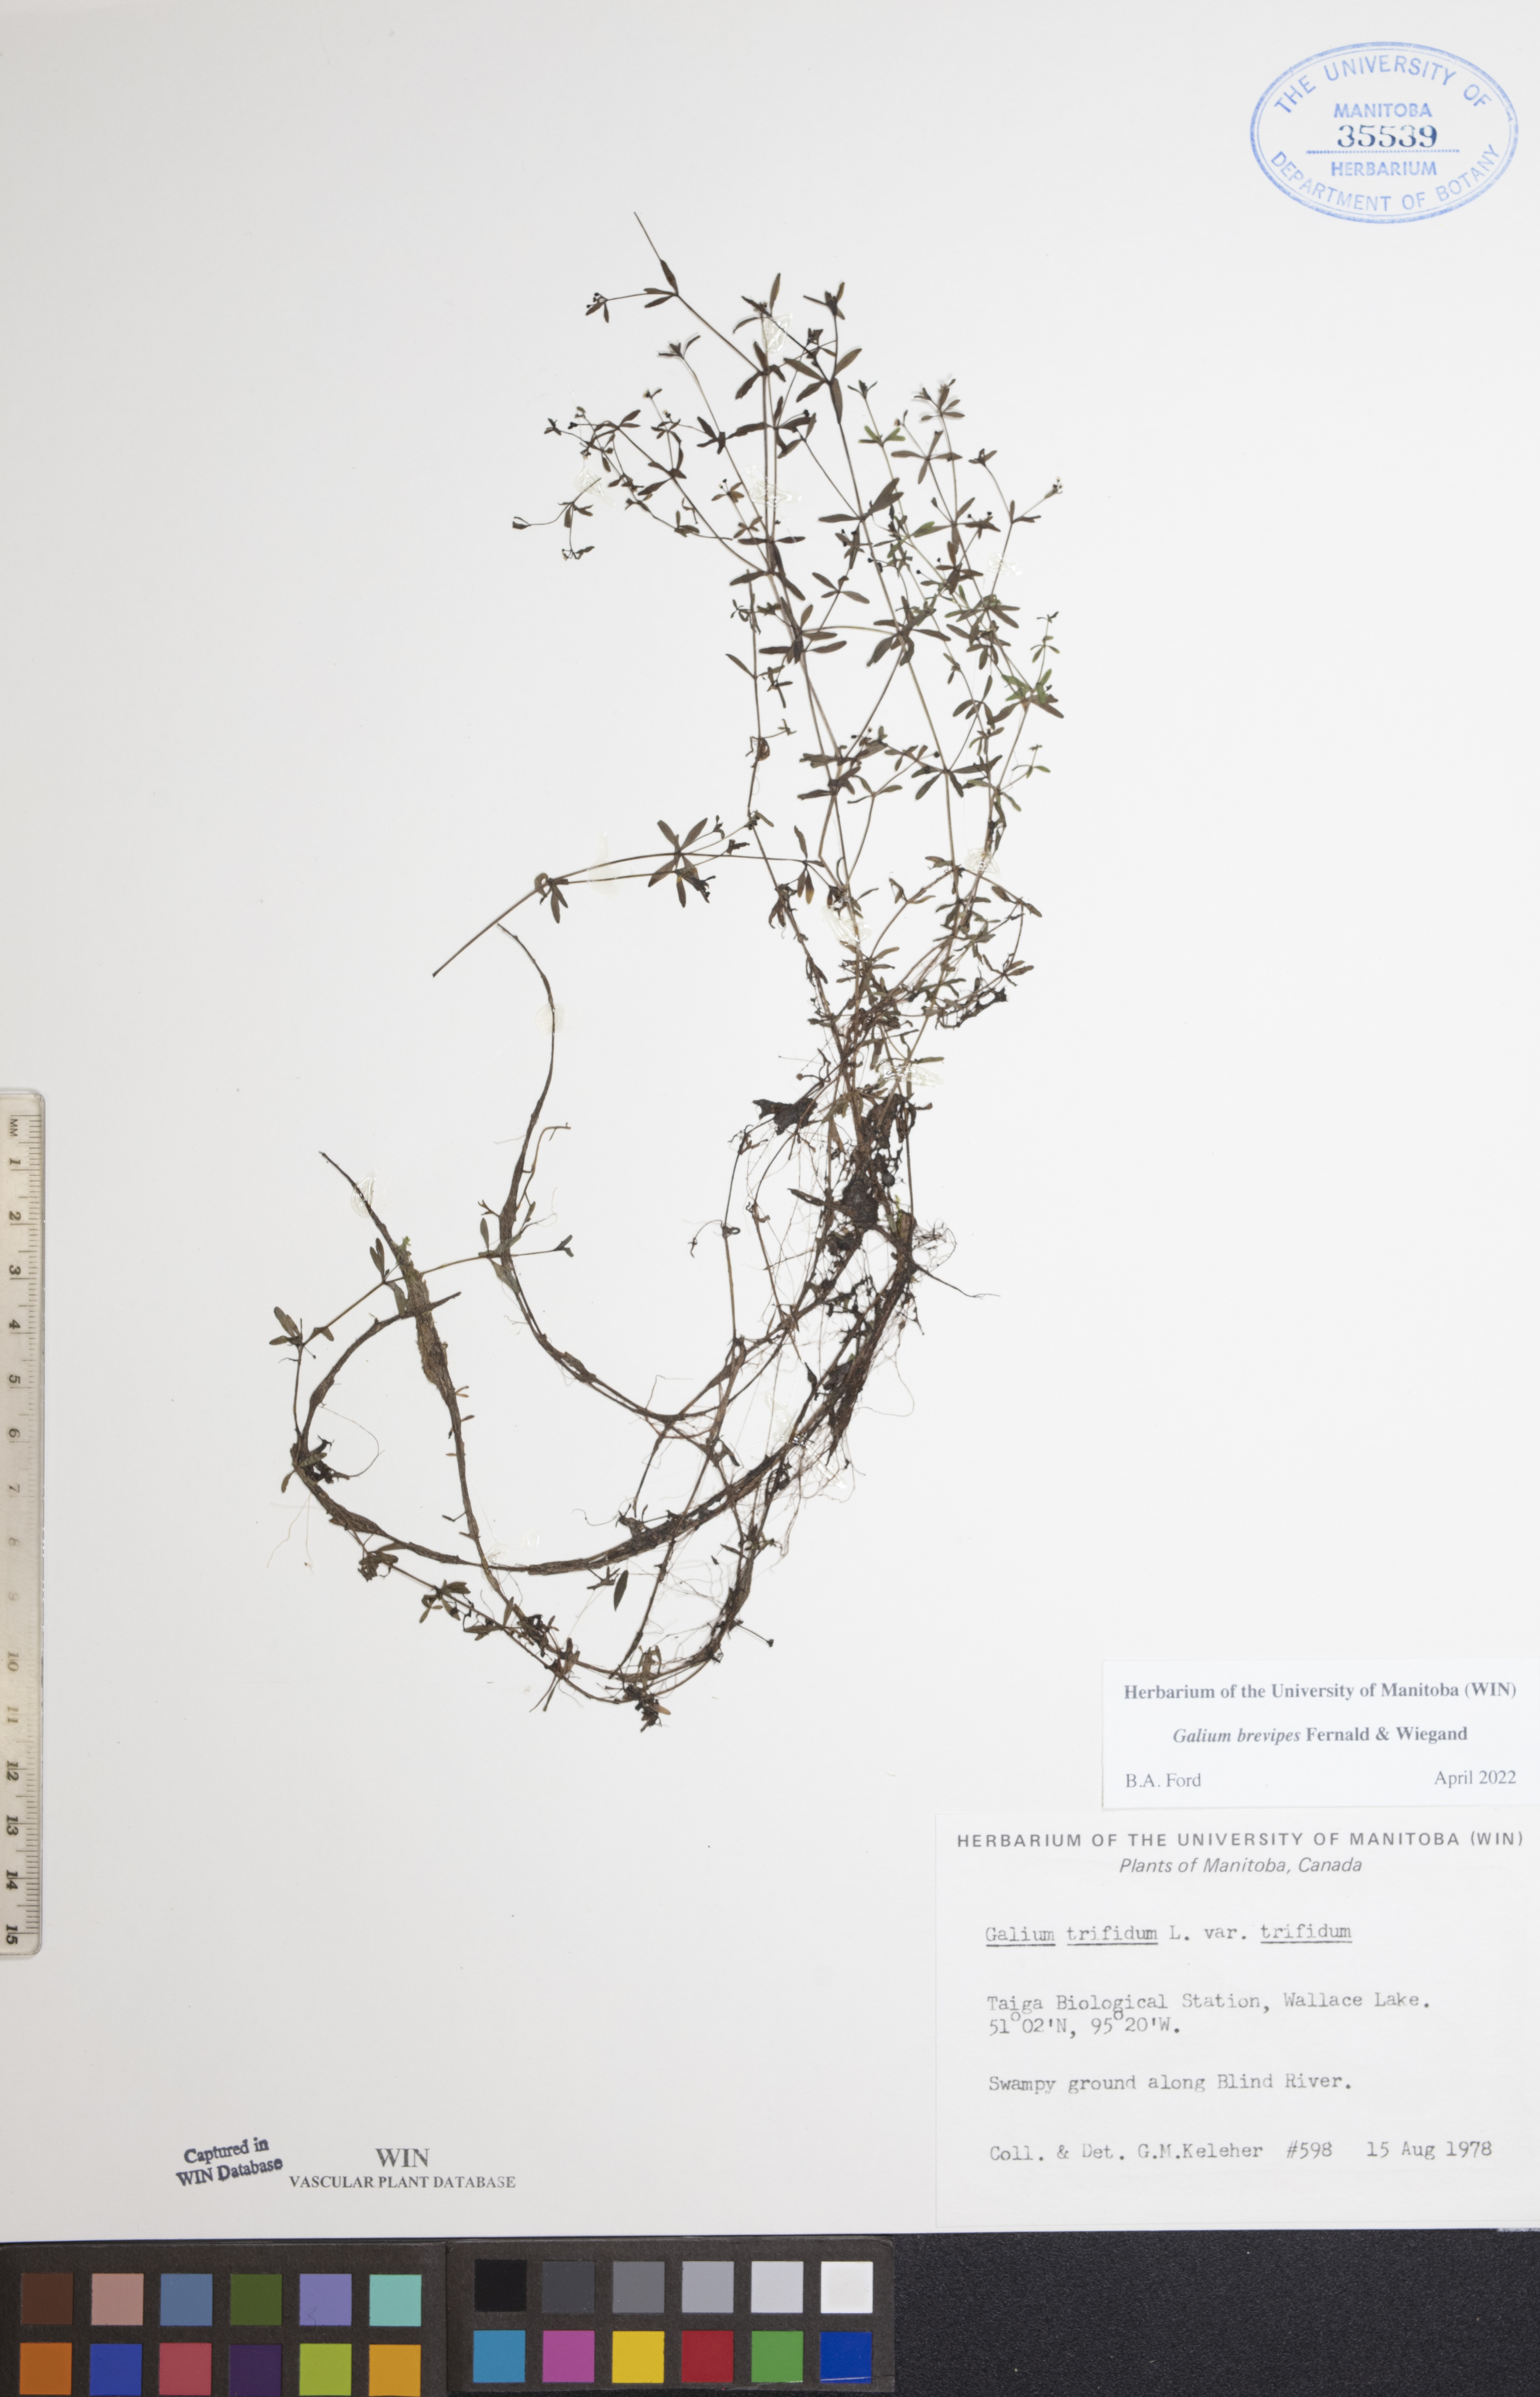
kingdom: Plantae
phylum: Tracheophyta
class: Magnoliopsida
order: Gentianales
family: Rubiaceae
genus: Galium
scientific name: Galium domingense
